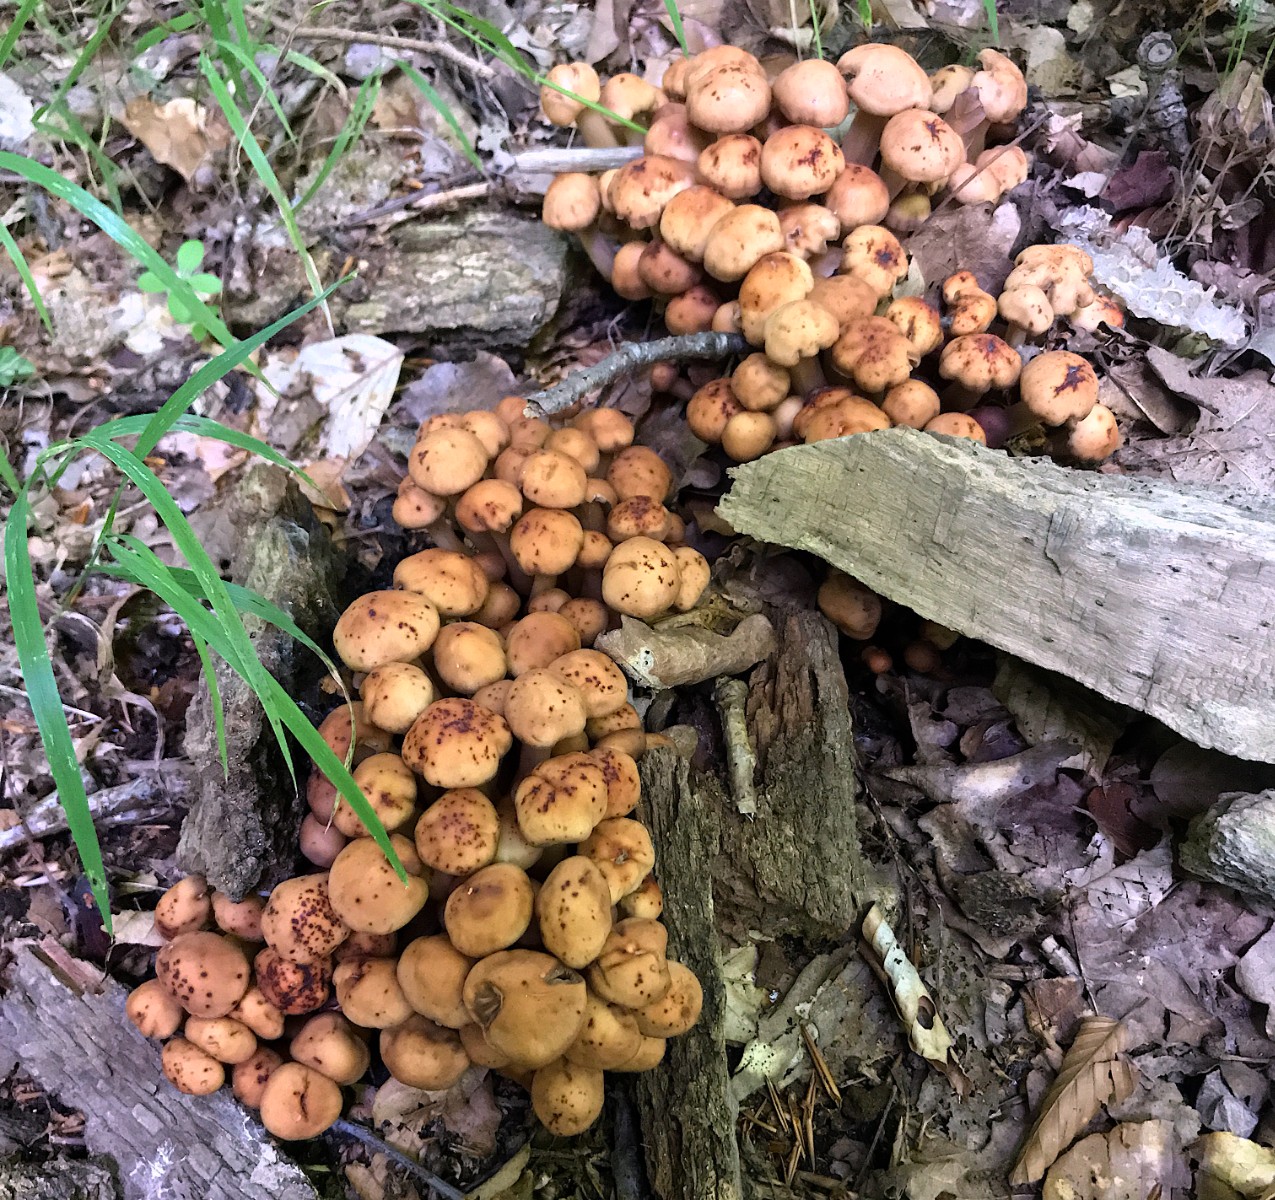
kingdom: Fungi
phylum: Basidiomycota
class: Agaricomycetes
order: Agaricales
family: Omphalotaceae
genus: Gymnopus
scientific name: Gymnopus fusipes
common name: tenstokket fladhat
